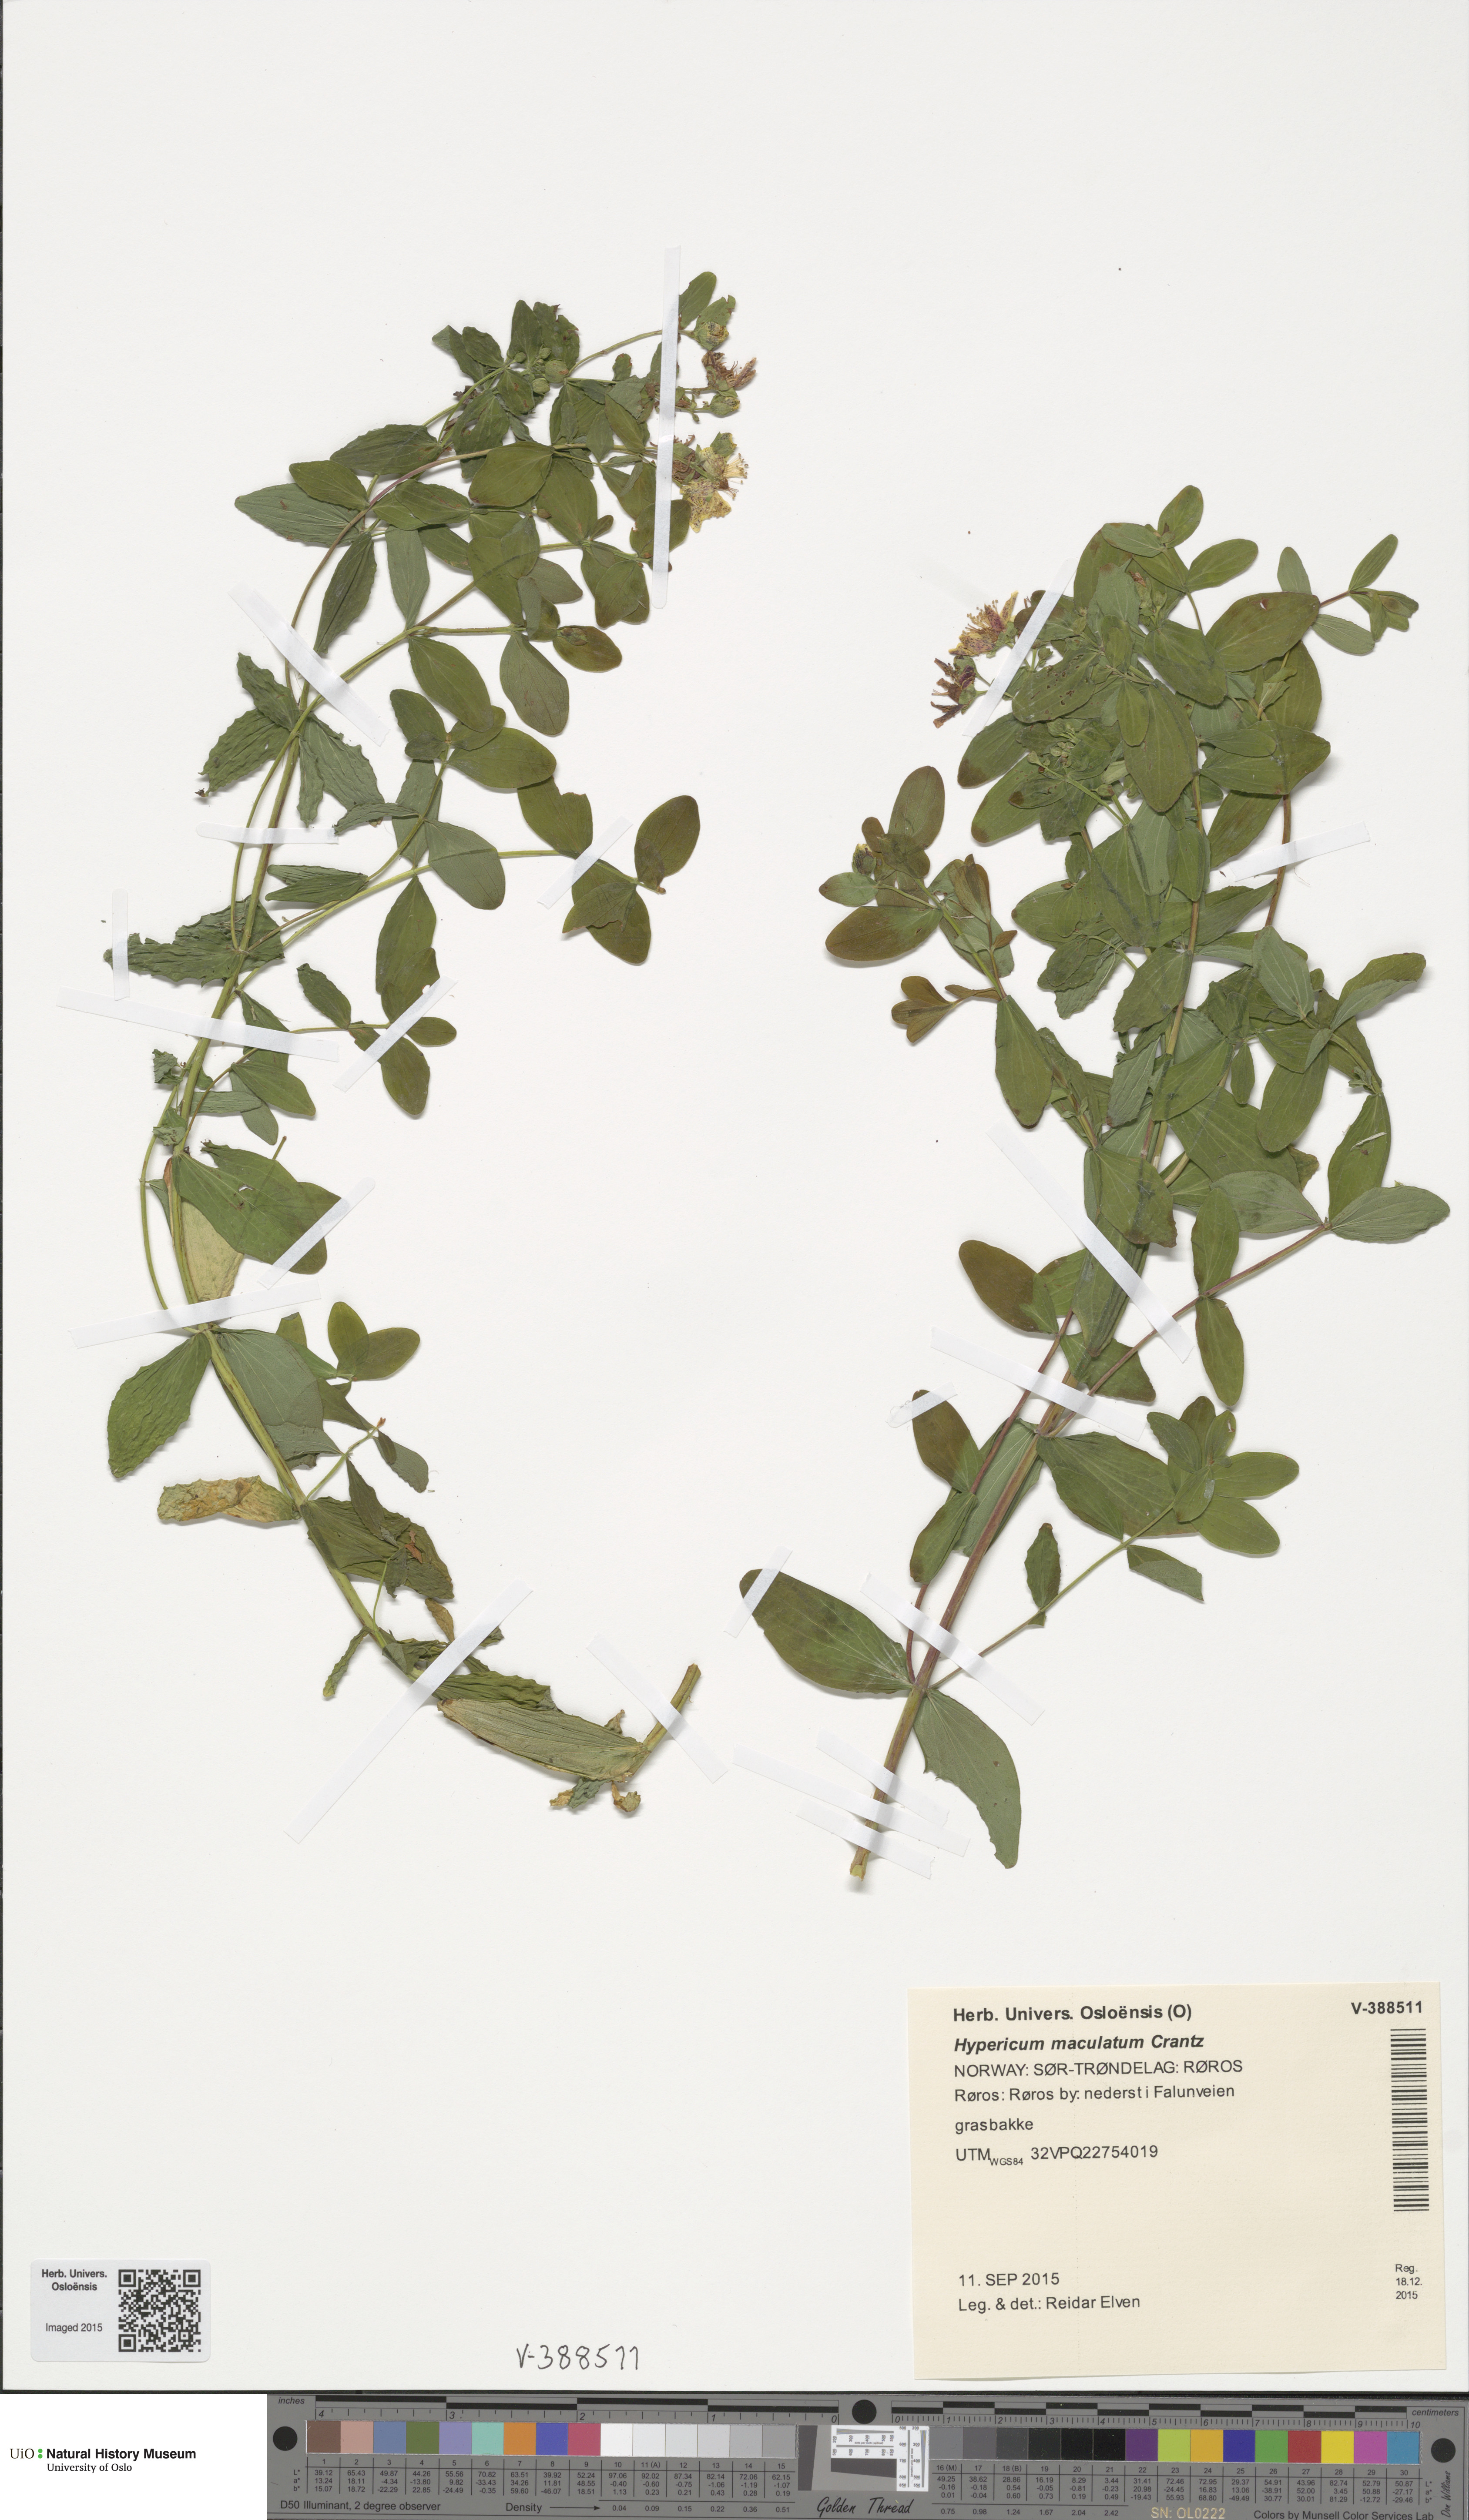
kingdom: Plantae
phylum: Tracheophyta
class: Magnoliopsida
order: Malpighiales
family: Hypericaceae
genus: Hypericum
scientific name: Hypericum maculatum
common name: Imperforate st. john's-wort
